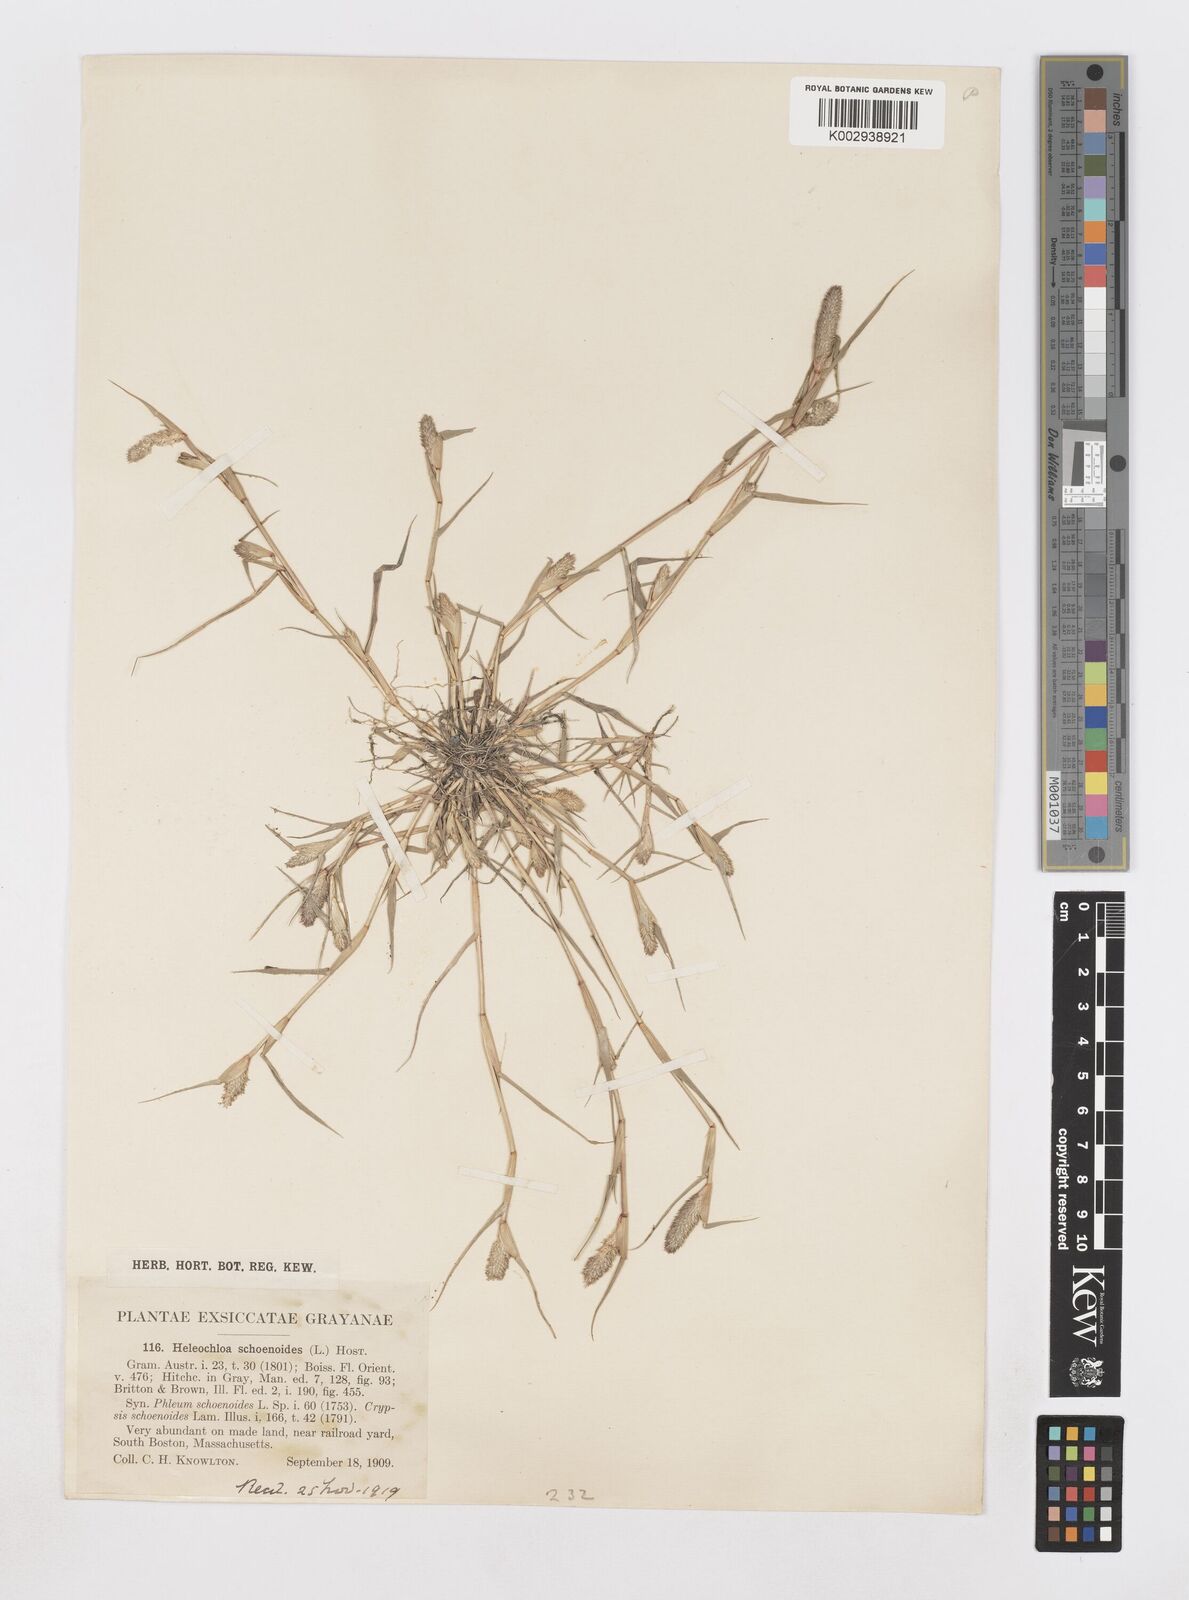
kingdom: Animalia
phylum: Arthropoda
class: Insecta
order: Coleoptera
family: Tenebrionidae
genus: Crypsis
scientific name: Crypsis
